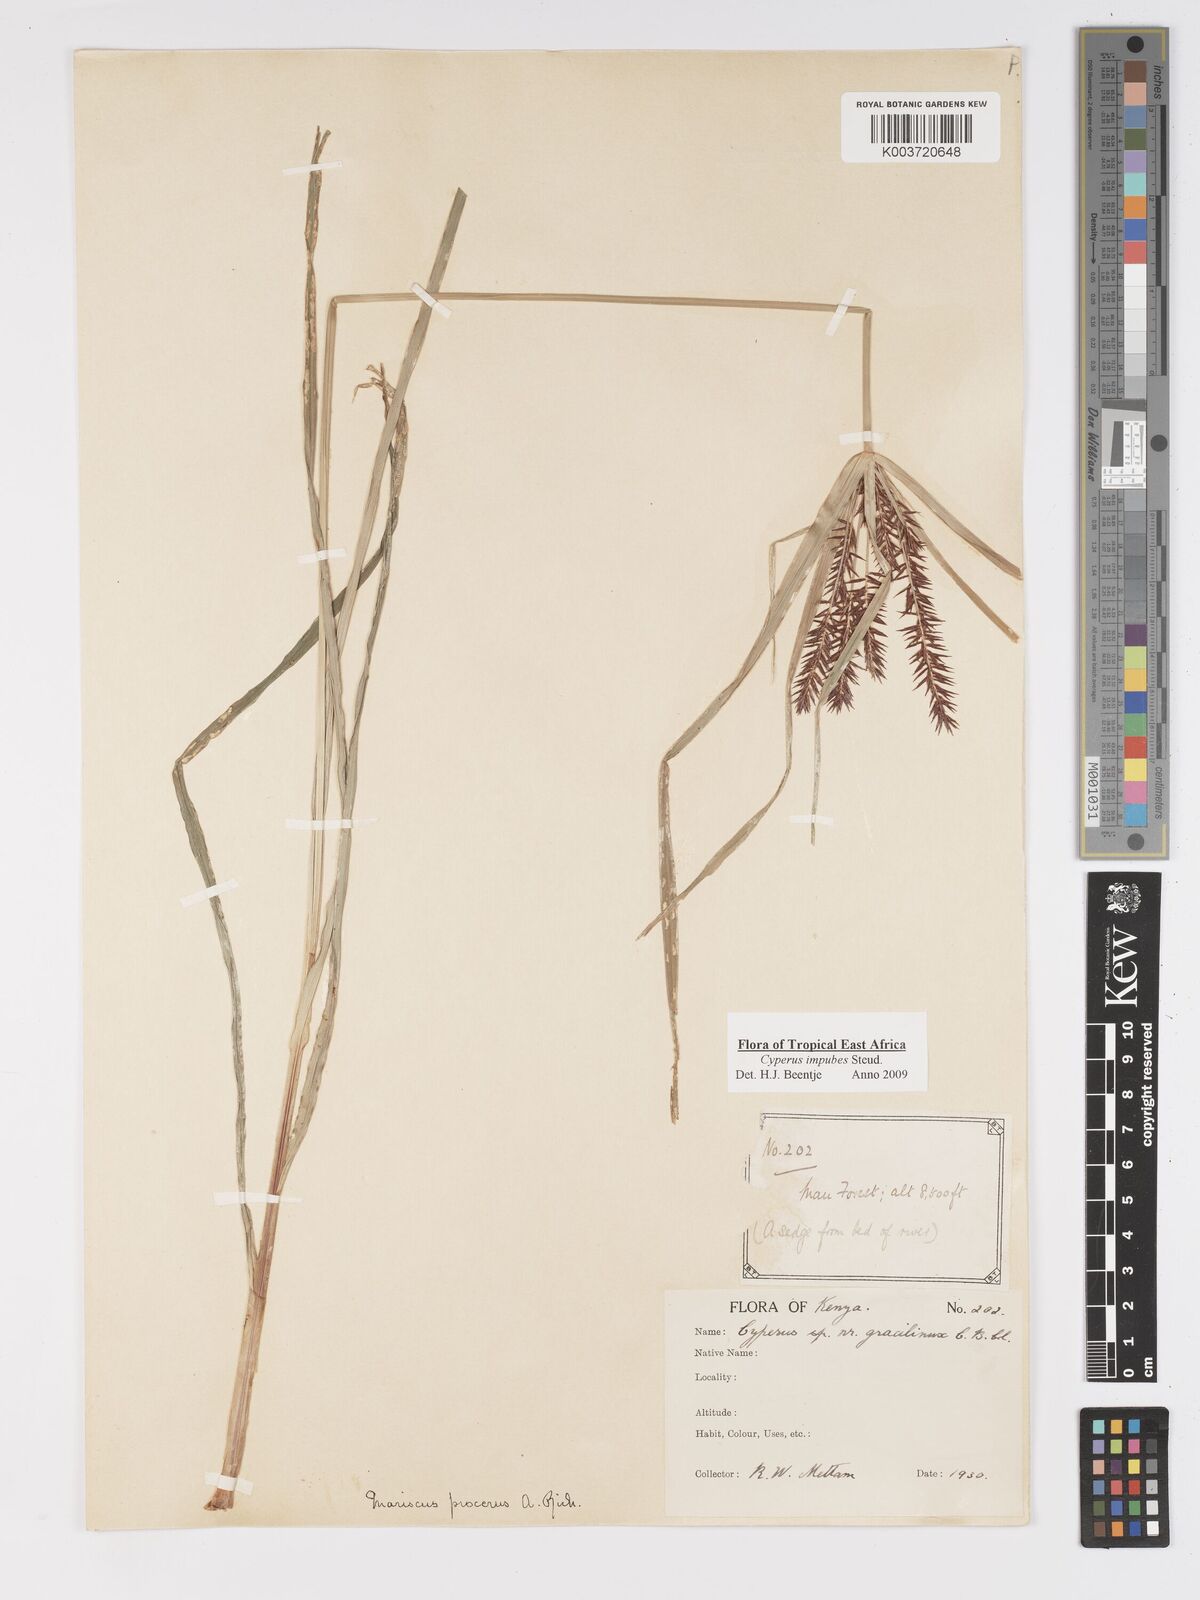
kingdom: Plantae
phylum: Tracheophyta
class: Liliopsida
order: Poales
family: Cyperaceae
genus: Cyperus
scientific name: Cyperus impubes
